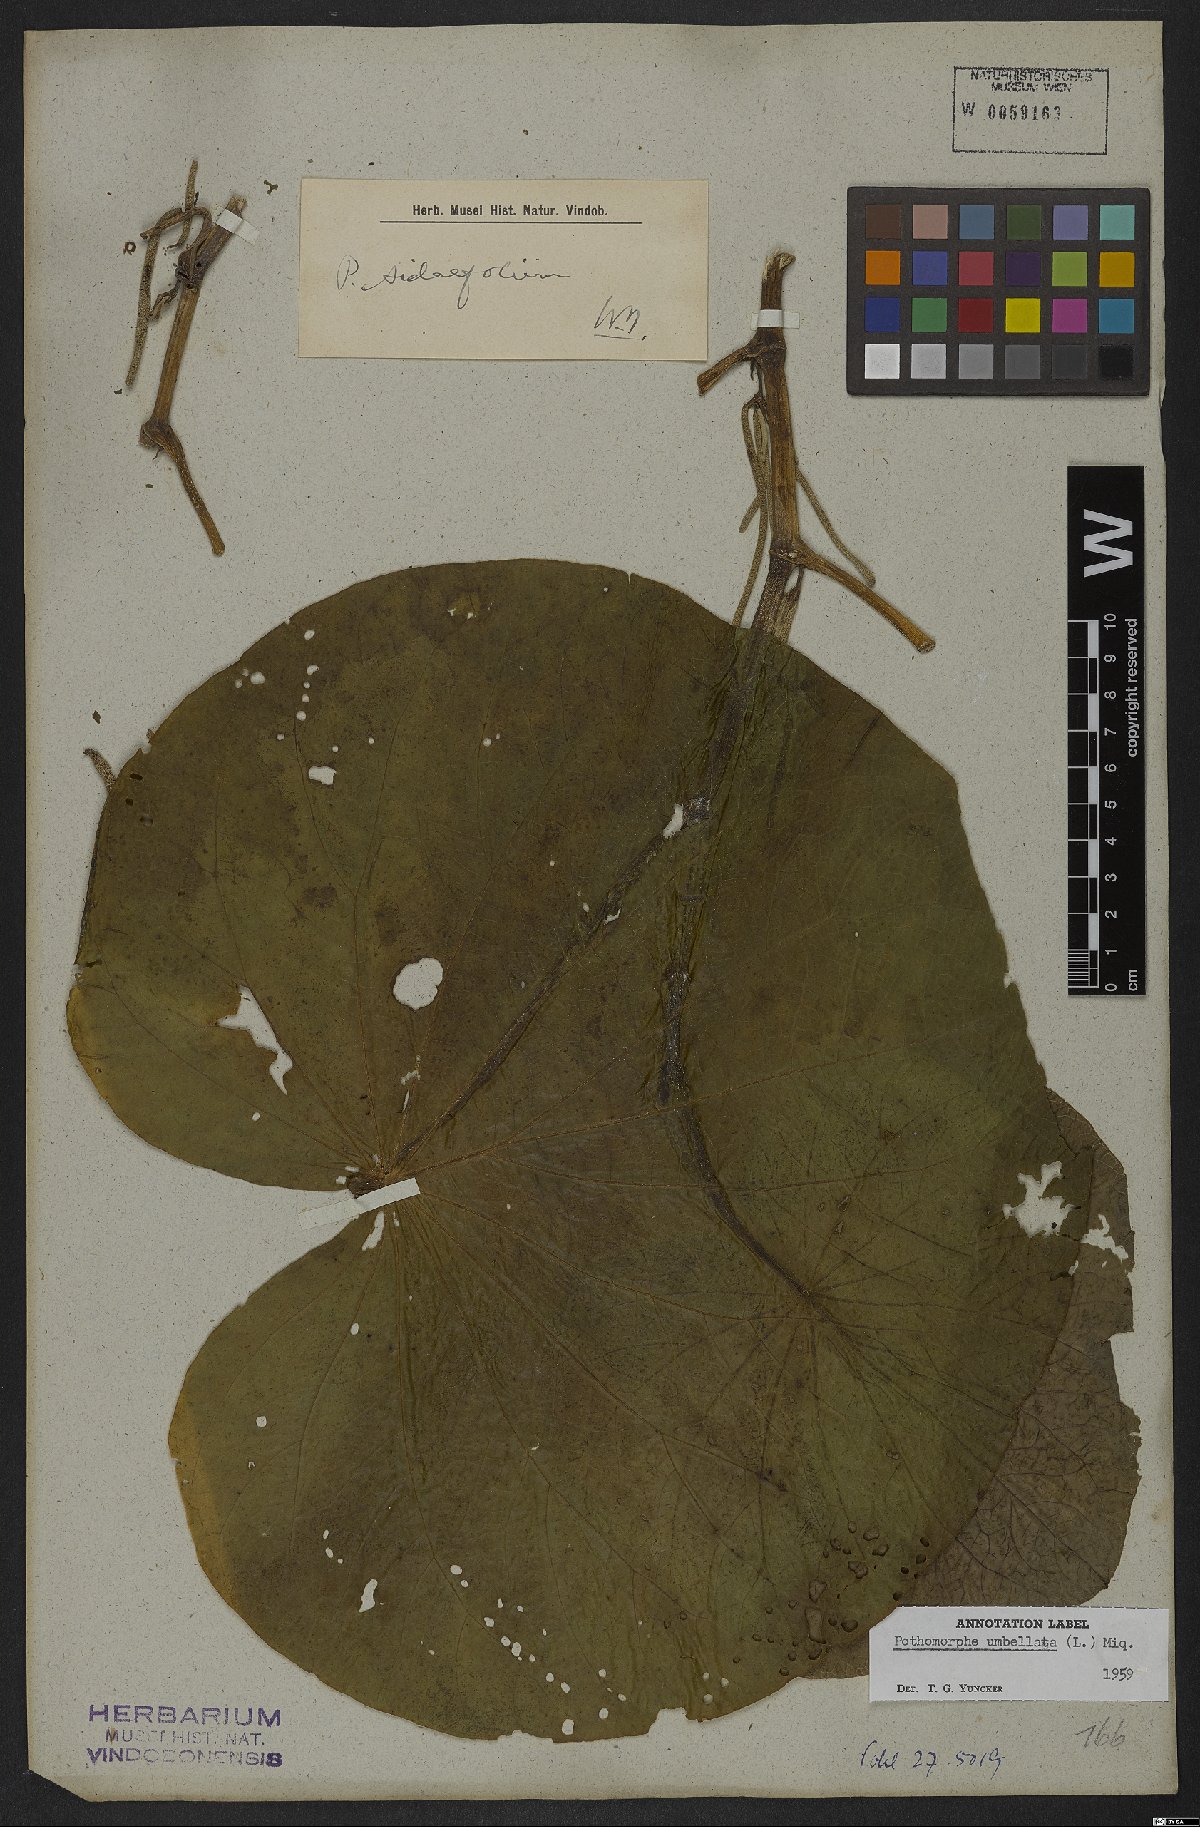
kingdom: Plantae
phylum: Tracheophyta
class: Magnoliopsida
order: Piperales
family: Piperaceae
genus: Piper
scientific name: Piper umbellatum
